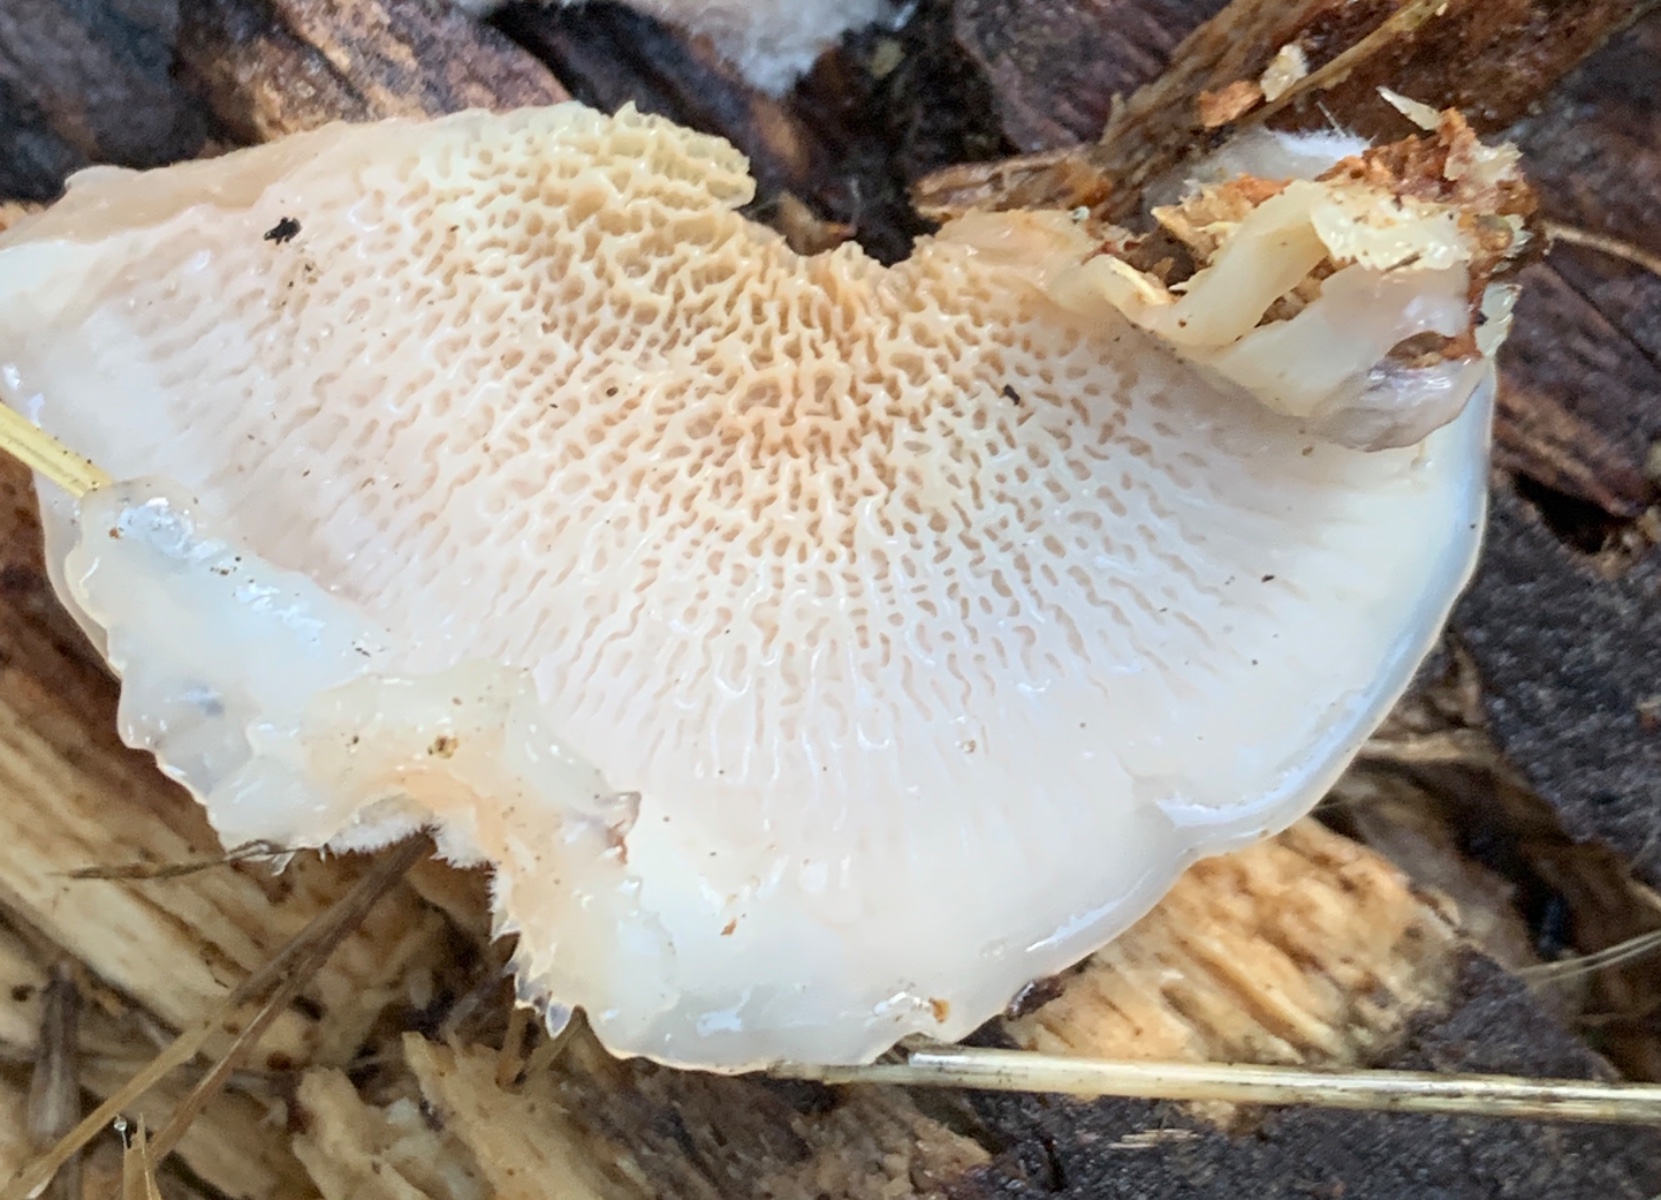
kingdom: Fungi
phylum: Basidiomycota
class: Agaricomycetes
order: Polyporales
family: Meruliaceae
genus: Phlebia
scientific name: Phlebia tremellosa
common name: bævrende åresvamp
